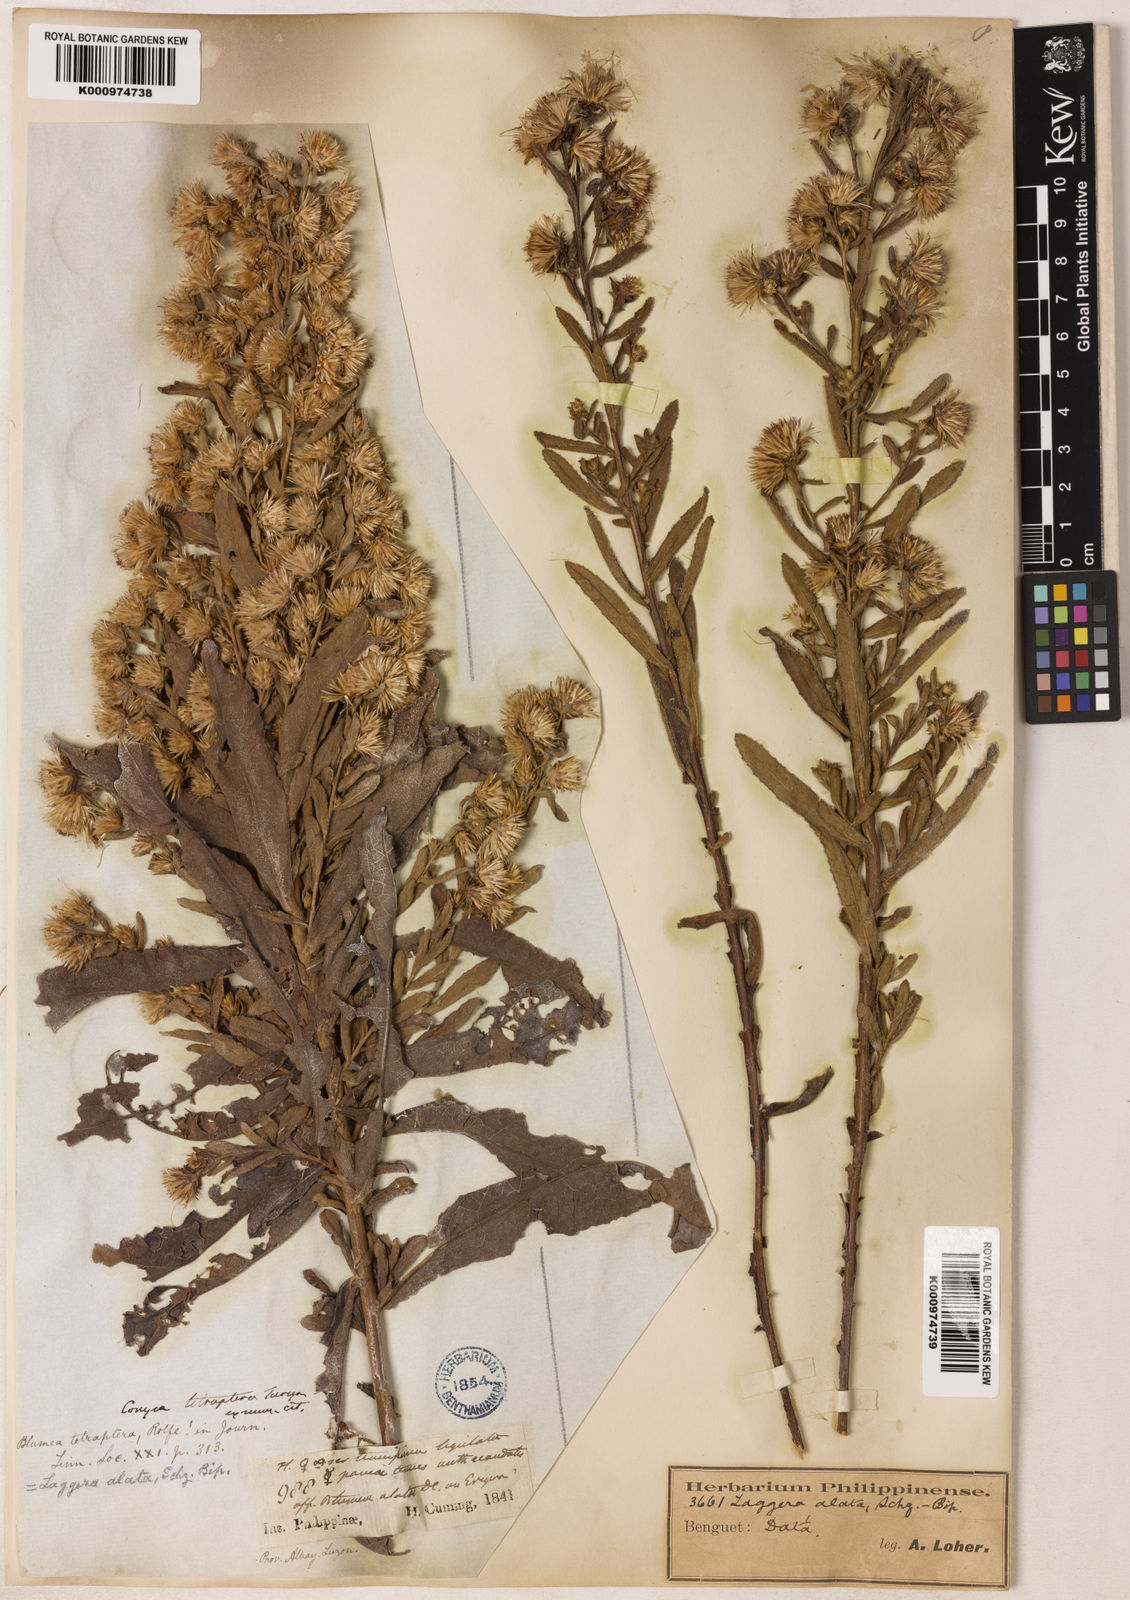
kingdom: Plantae
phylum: Tracheophyta
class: Magnoliopsida
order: Asterales
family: Asteraceae
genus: Laggera
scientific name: Laggera alata
